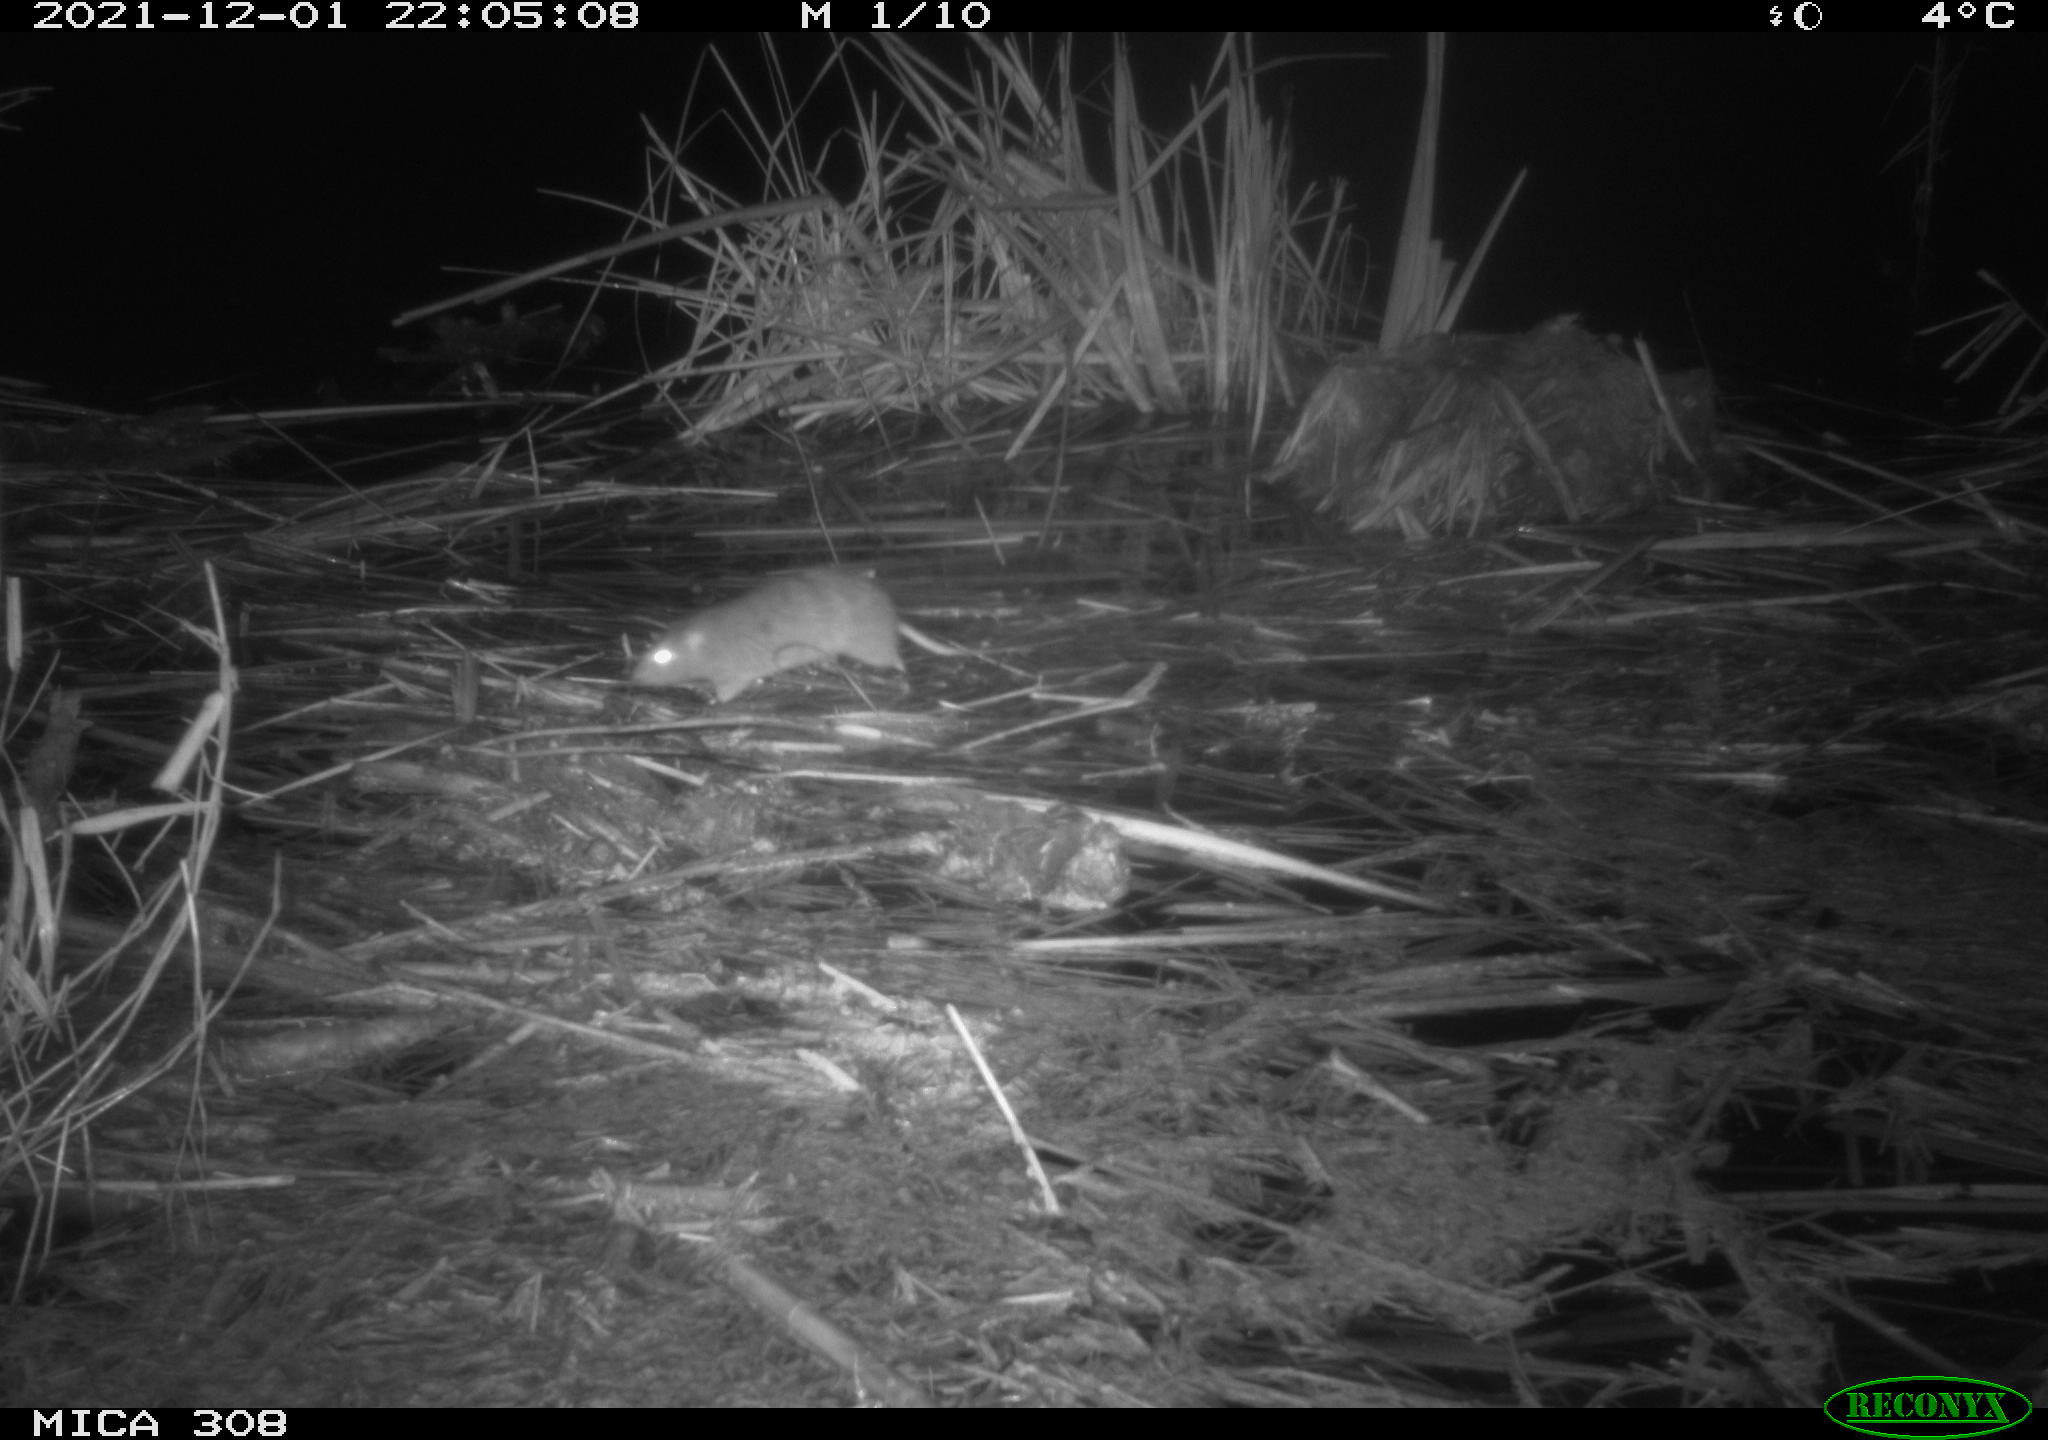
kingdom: Animalia
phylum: Chordata
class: Mammalia
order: Rodentia
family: Muridae
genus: Rattus
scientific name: Rattus norvegicus
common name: Brown rat
